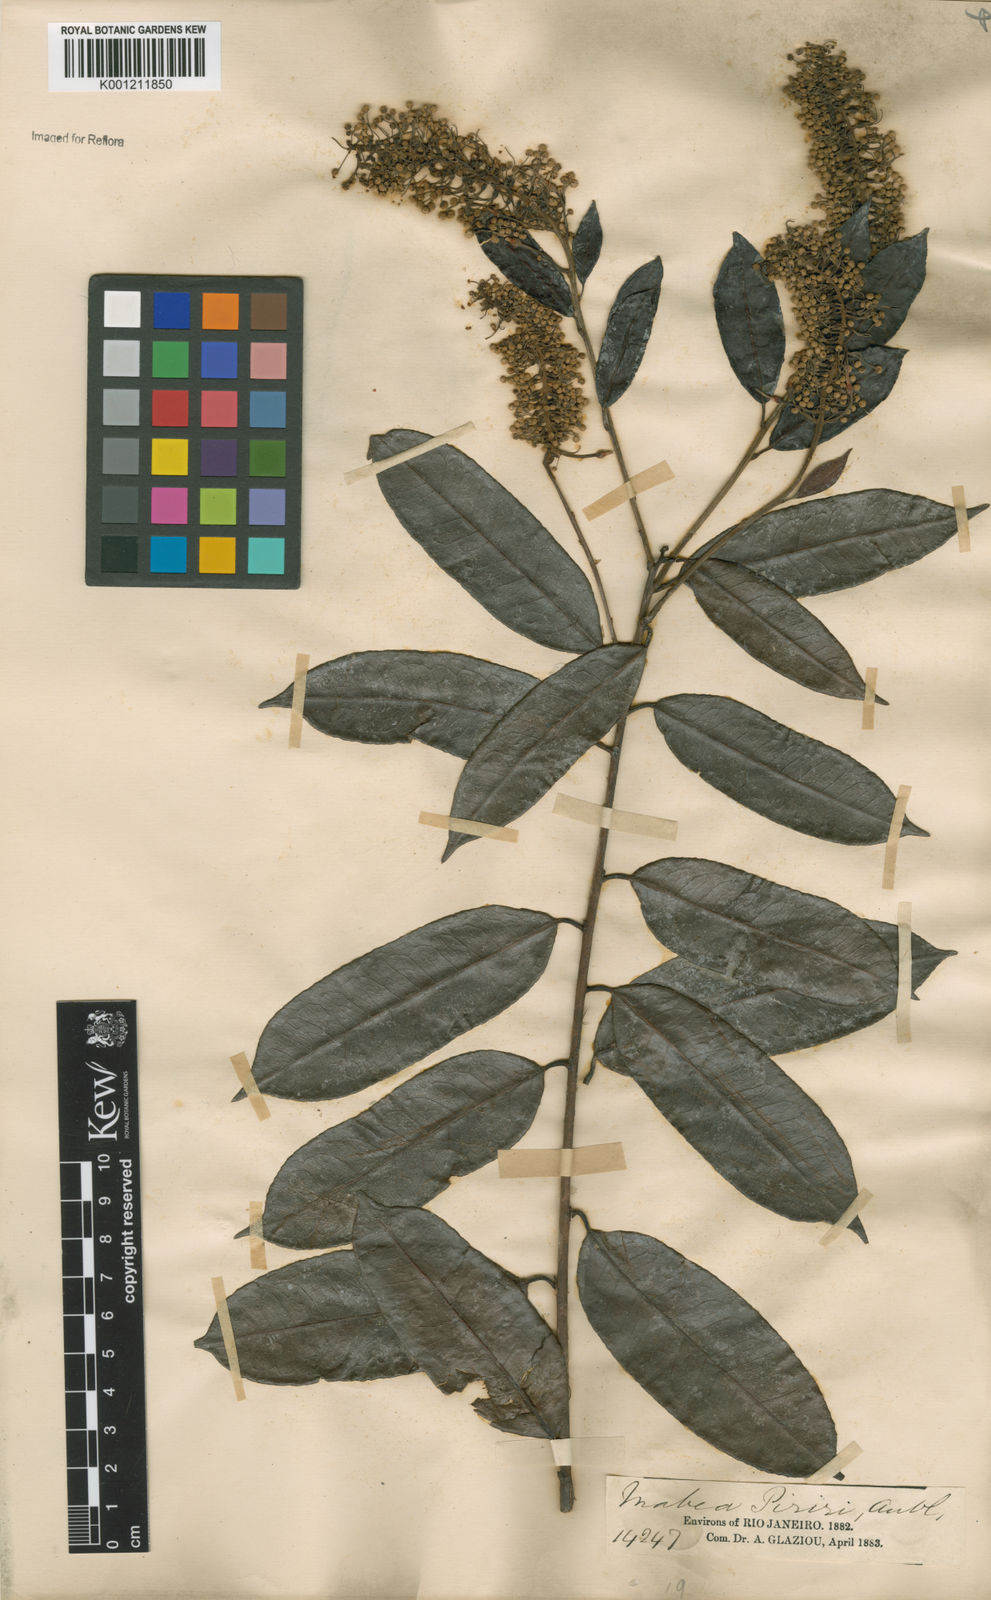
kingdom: Plantae
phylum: Tracheophyta
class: Magnoliopsida
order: Malpighiales
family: Euphorbiaceae
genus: Mabea
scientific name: Mabea glaziovii
